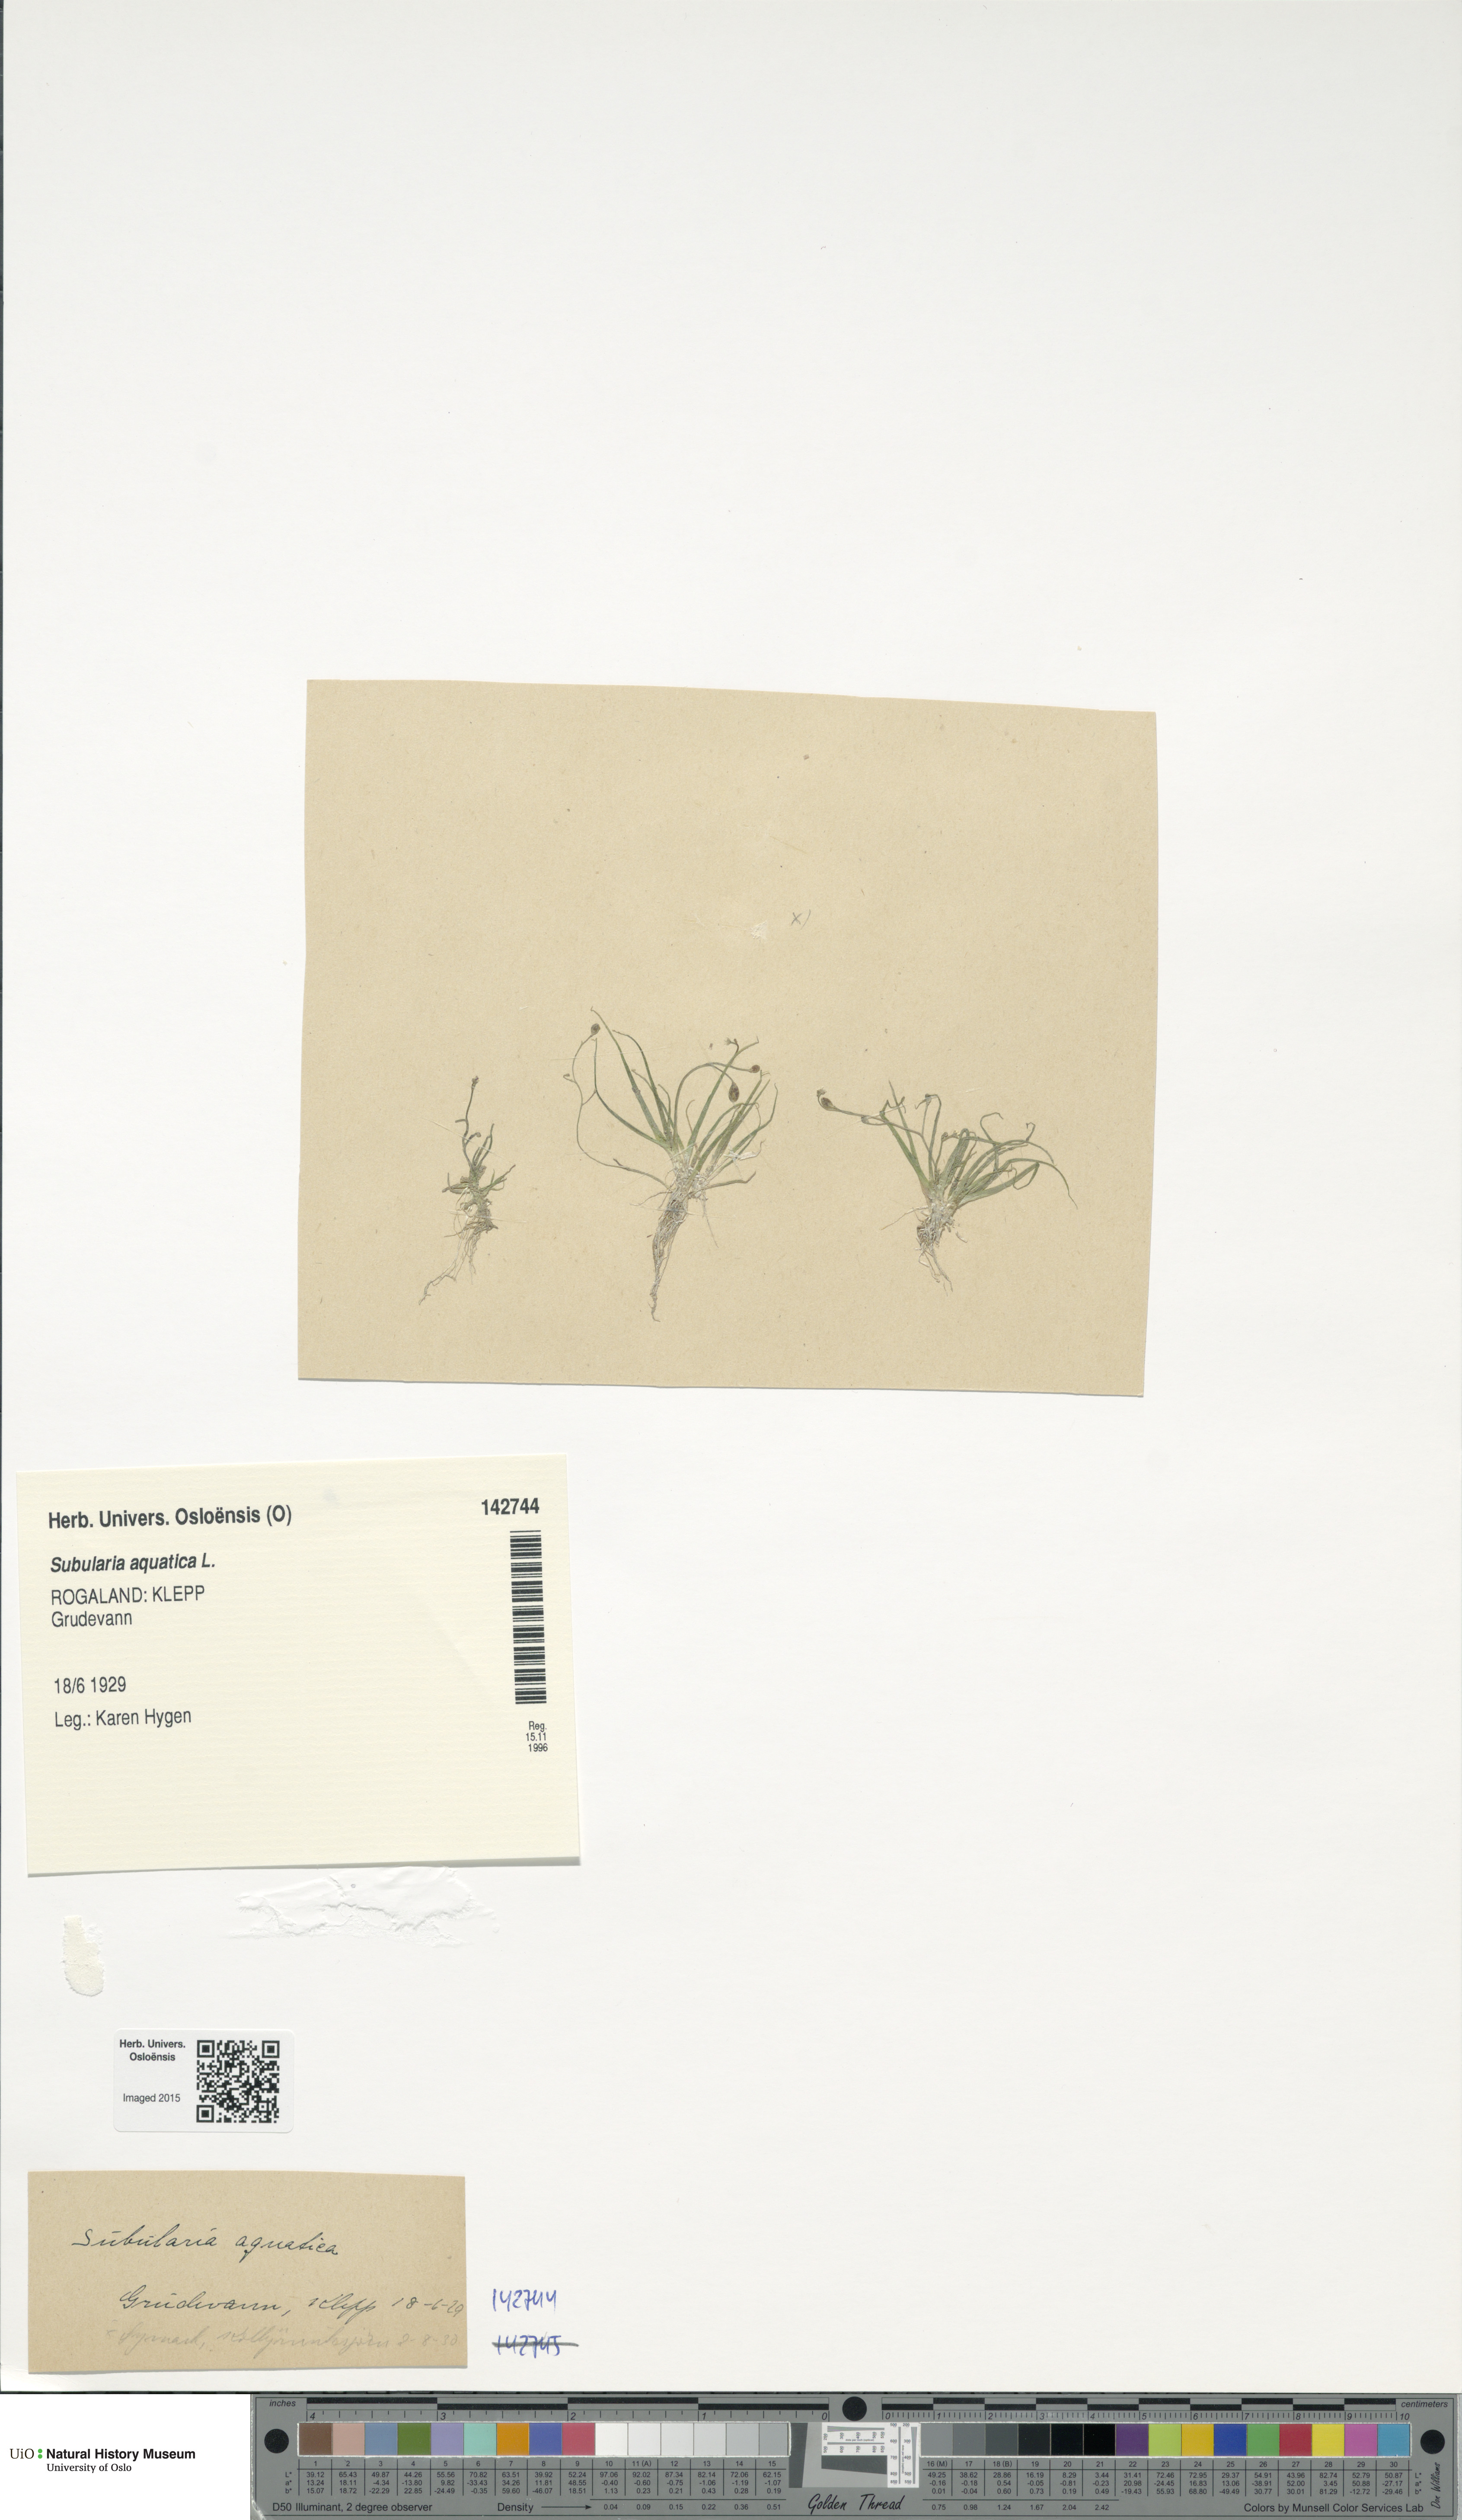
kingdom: Plantae
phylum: Tracheophyta
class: Magnoliopsida
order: Brassicales
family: Brassicaceae
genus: Subularia
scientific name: Subularia aquatica
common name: Awlwort
